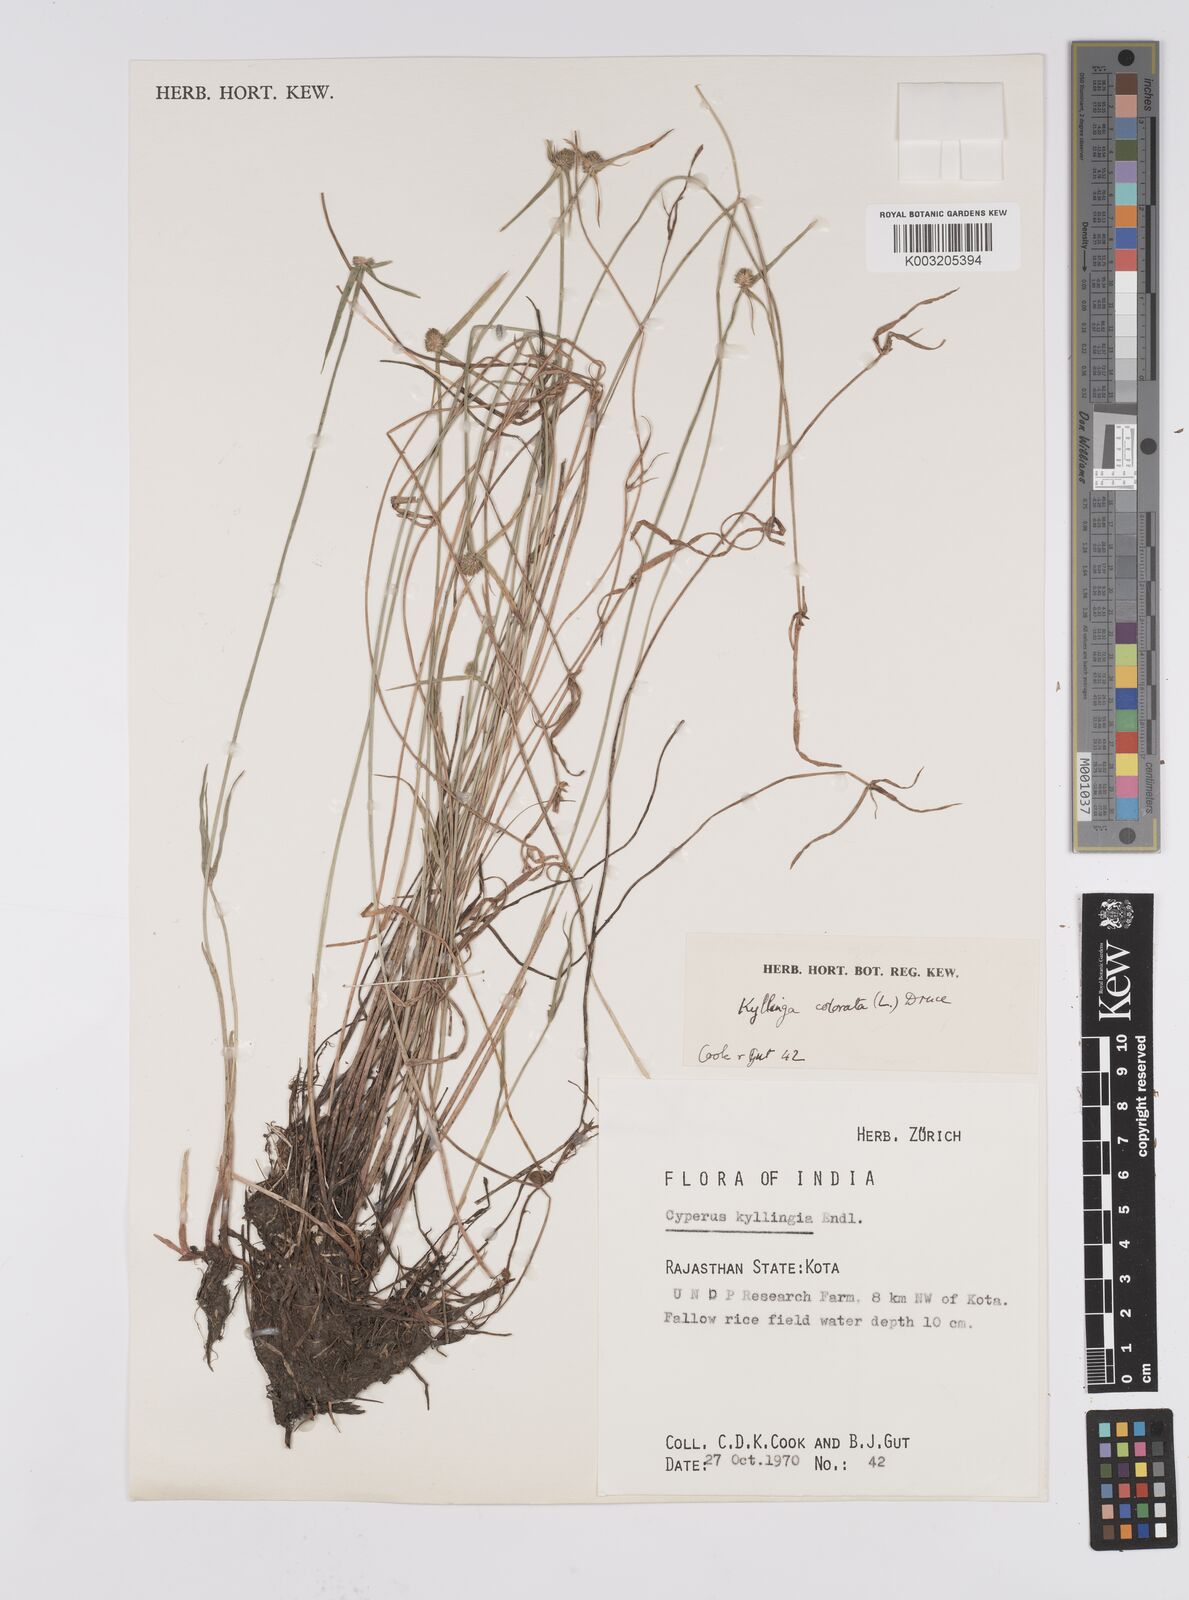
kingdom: Plantae
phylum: Tracheophyta
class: Liliopsida
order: Poales
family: Cyperaceae
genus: Cyperus
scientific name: Cyperus brevifolius
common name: Globe kyllinga
